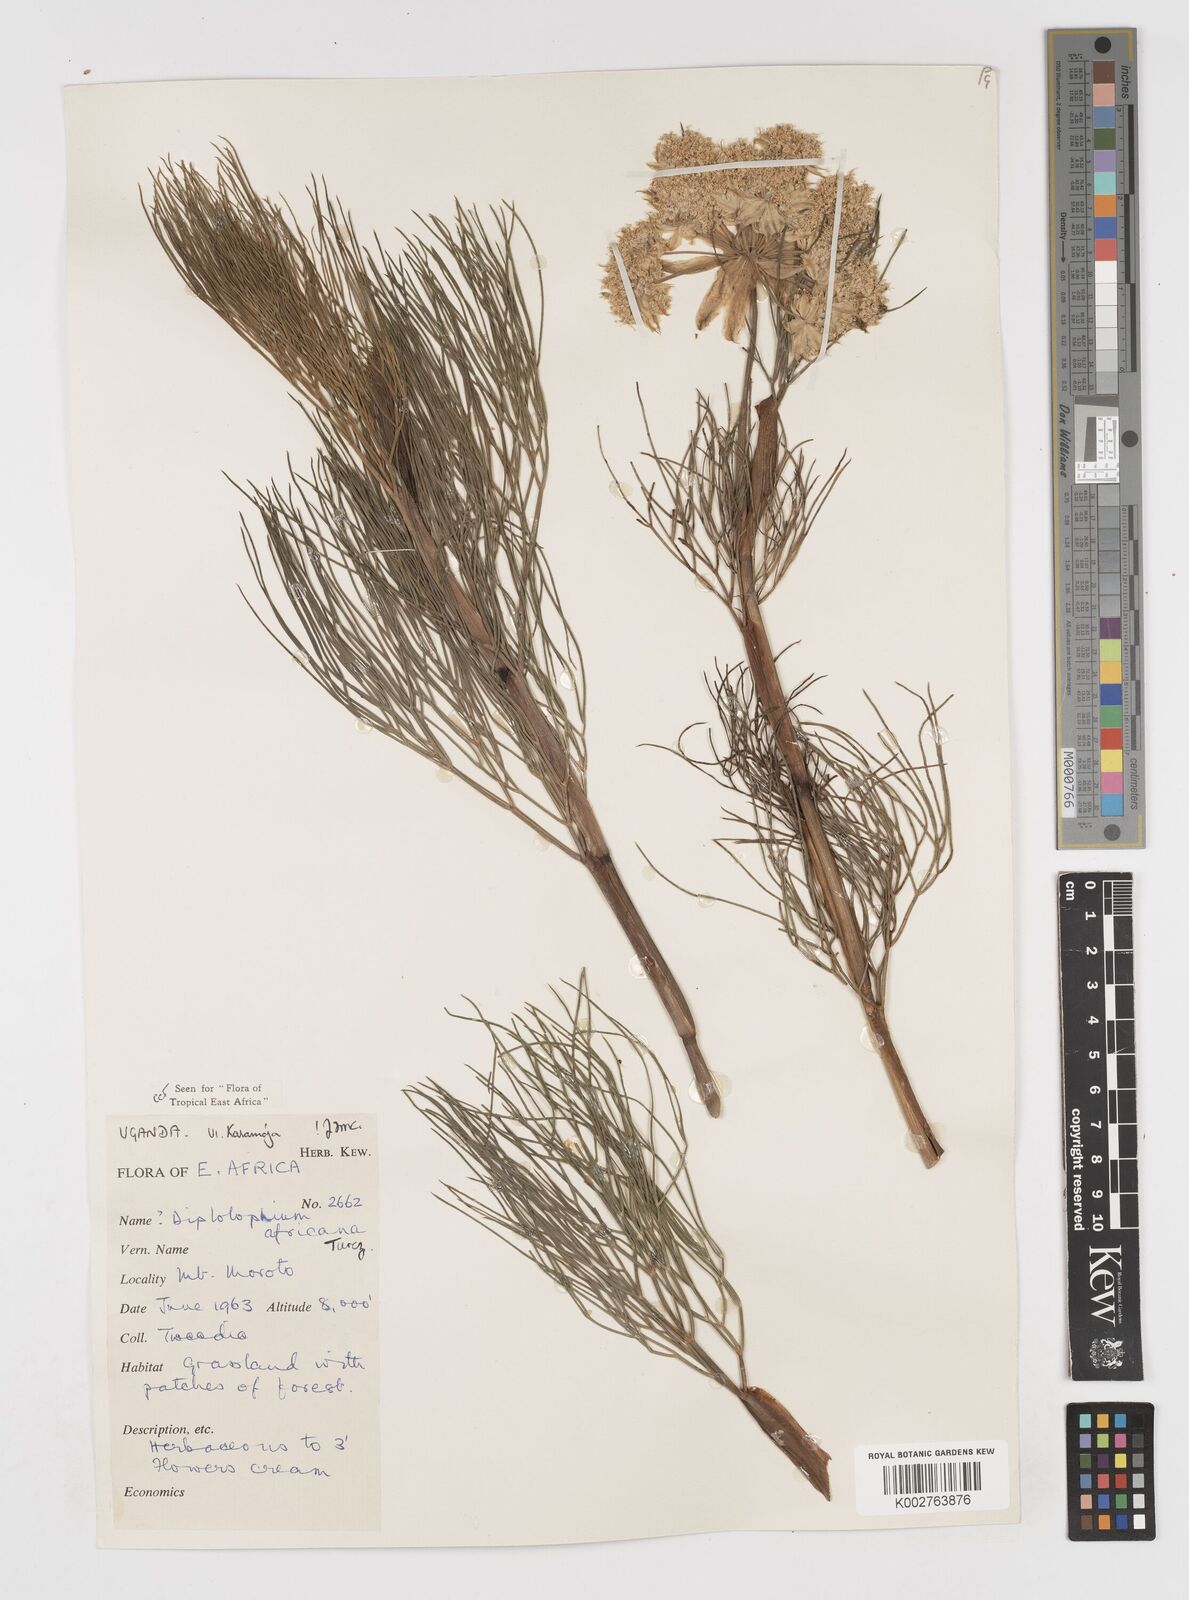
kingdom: Plantae
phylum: Tracheophyta
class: Magnoliopsida
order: Apiales
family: Apiaceae
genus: Diplolophium
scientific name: Diplolophium africanum
